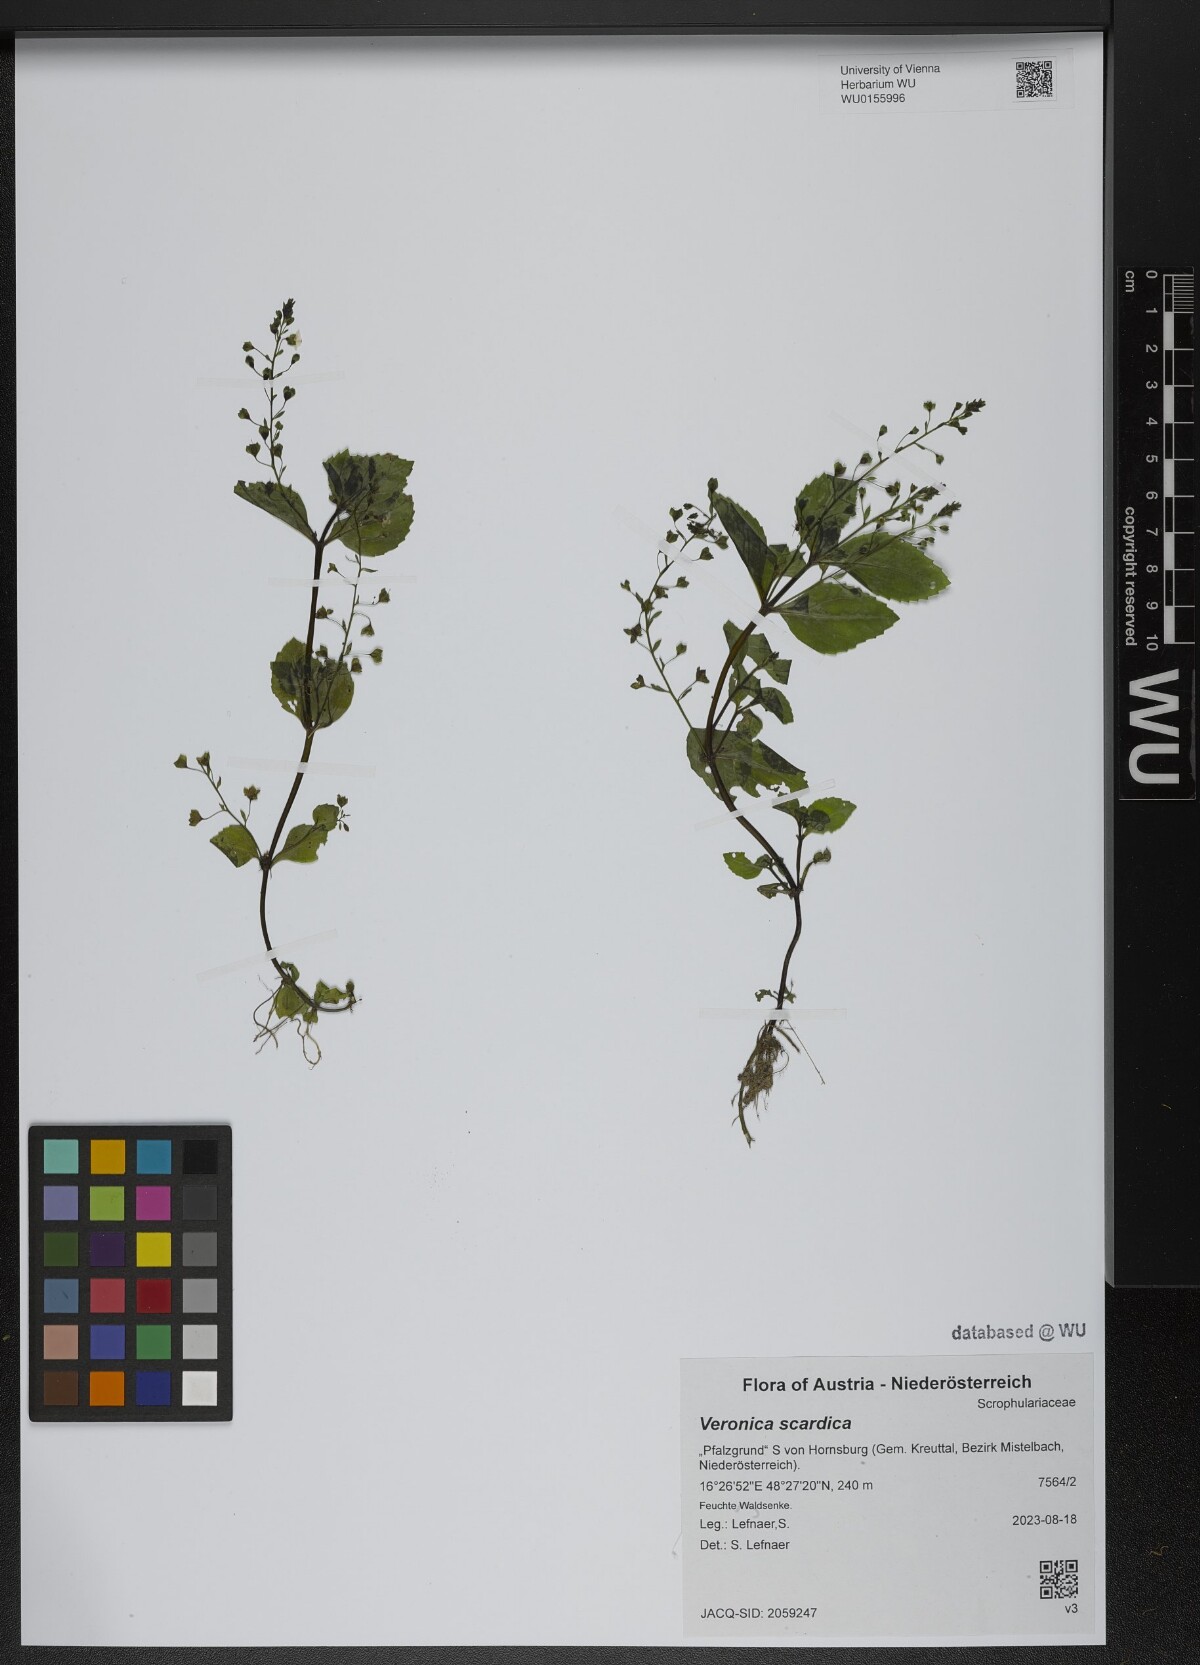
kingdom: Plantae
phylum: Tracheophyta
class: Magnoliopsida
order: Lamiales
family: Plantaginaceae
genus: Veronica
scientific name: Veronica scardica
